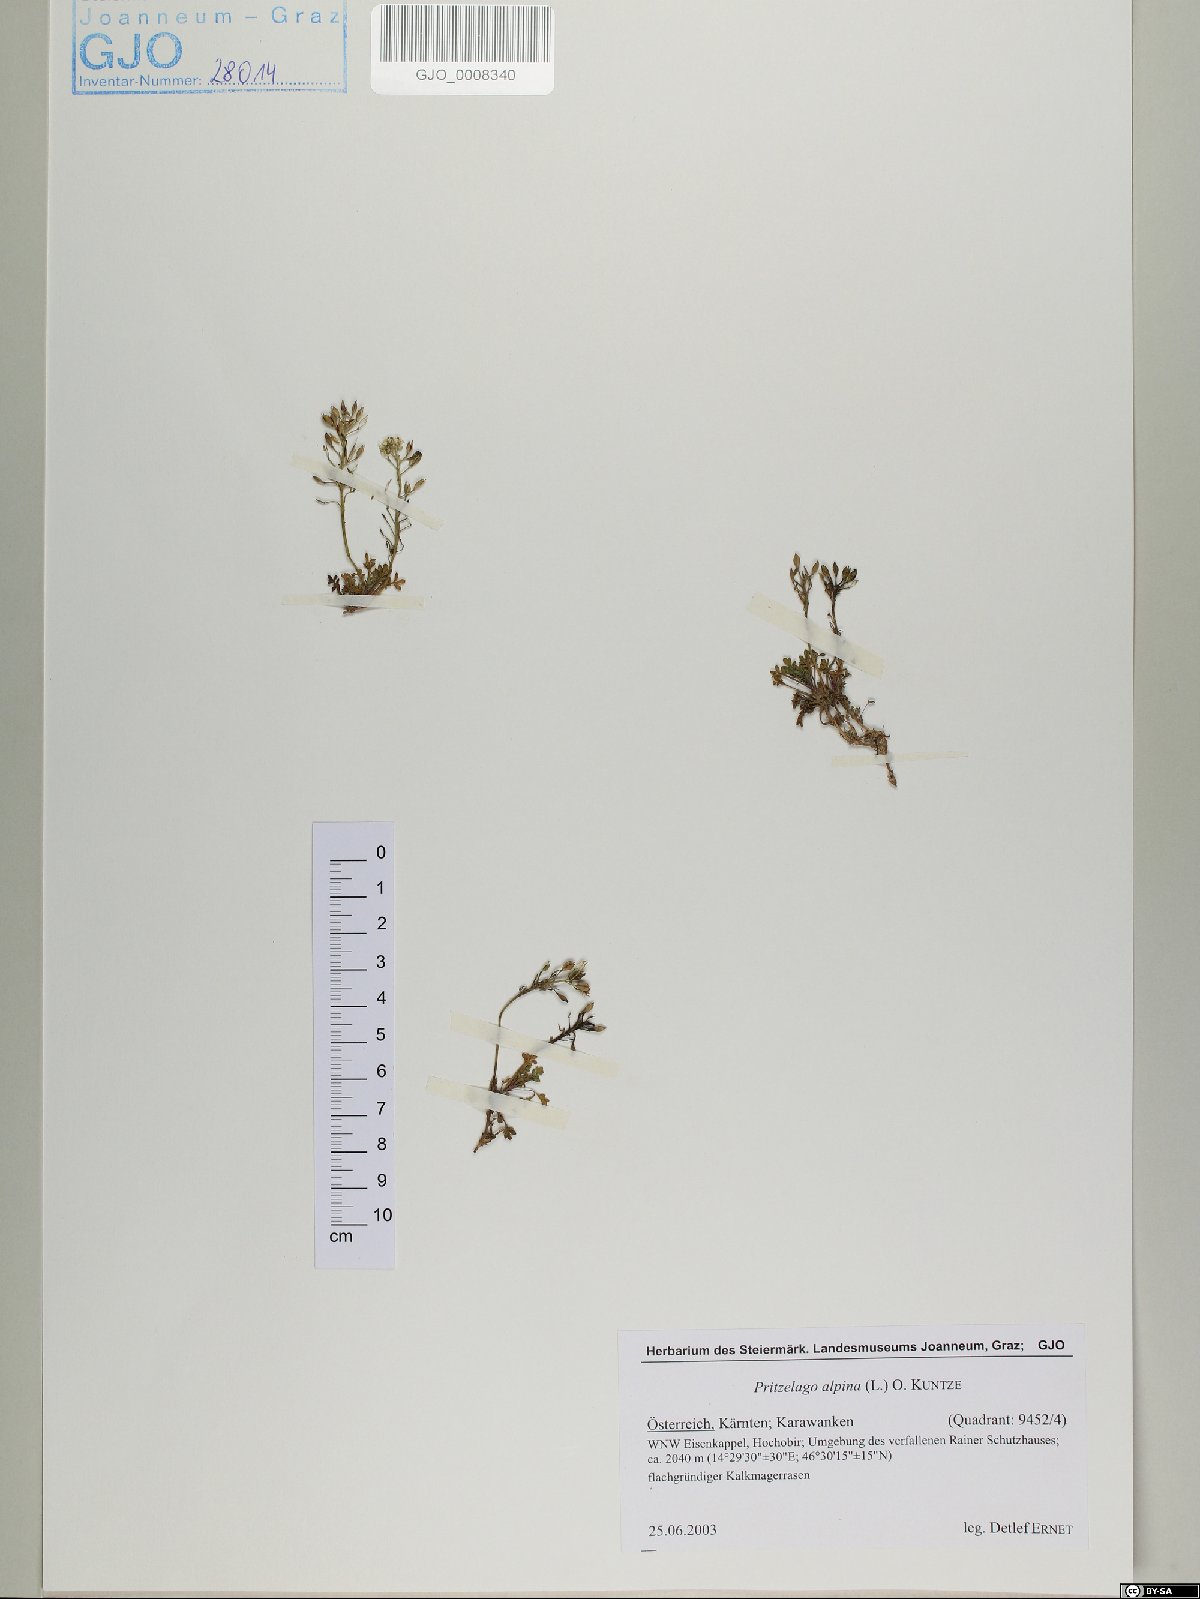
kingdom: Plantae
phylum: Tracheophyta
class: Magnoliopsida
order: Brassicales
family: Brassicaceae
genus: Hornungia
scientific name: Hornungia alpina
